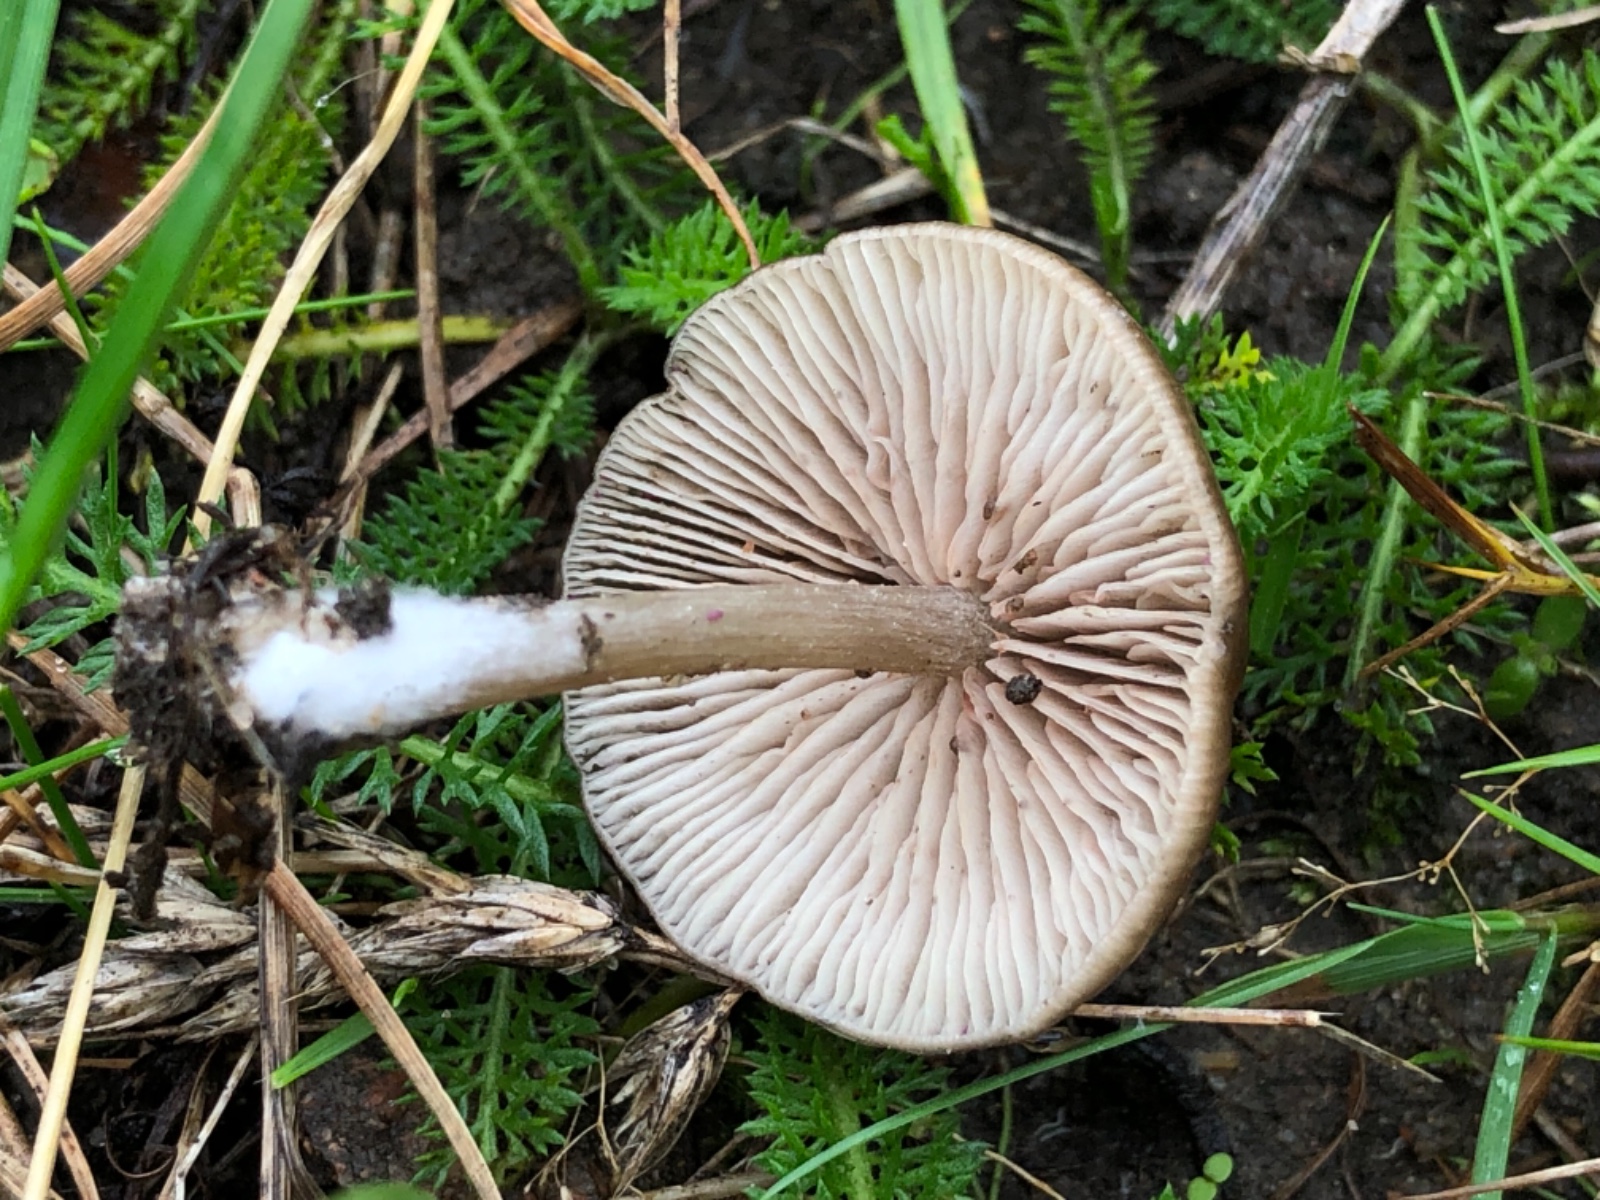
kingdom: Fungi
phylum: Basidiomycota
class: Agaricomycetes
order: Agaricales
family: Entolomataceae
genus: Entoloma
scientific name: Entoloma sericeum
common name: silkeglinsende rødblad
